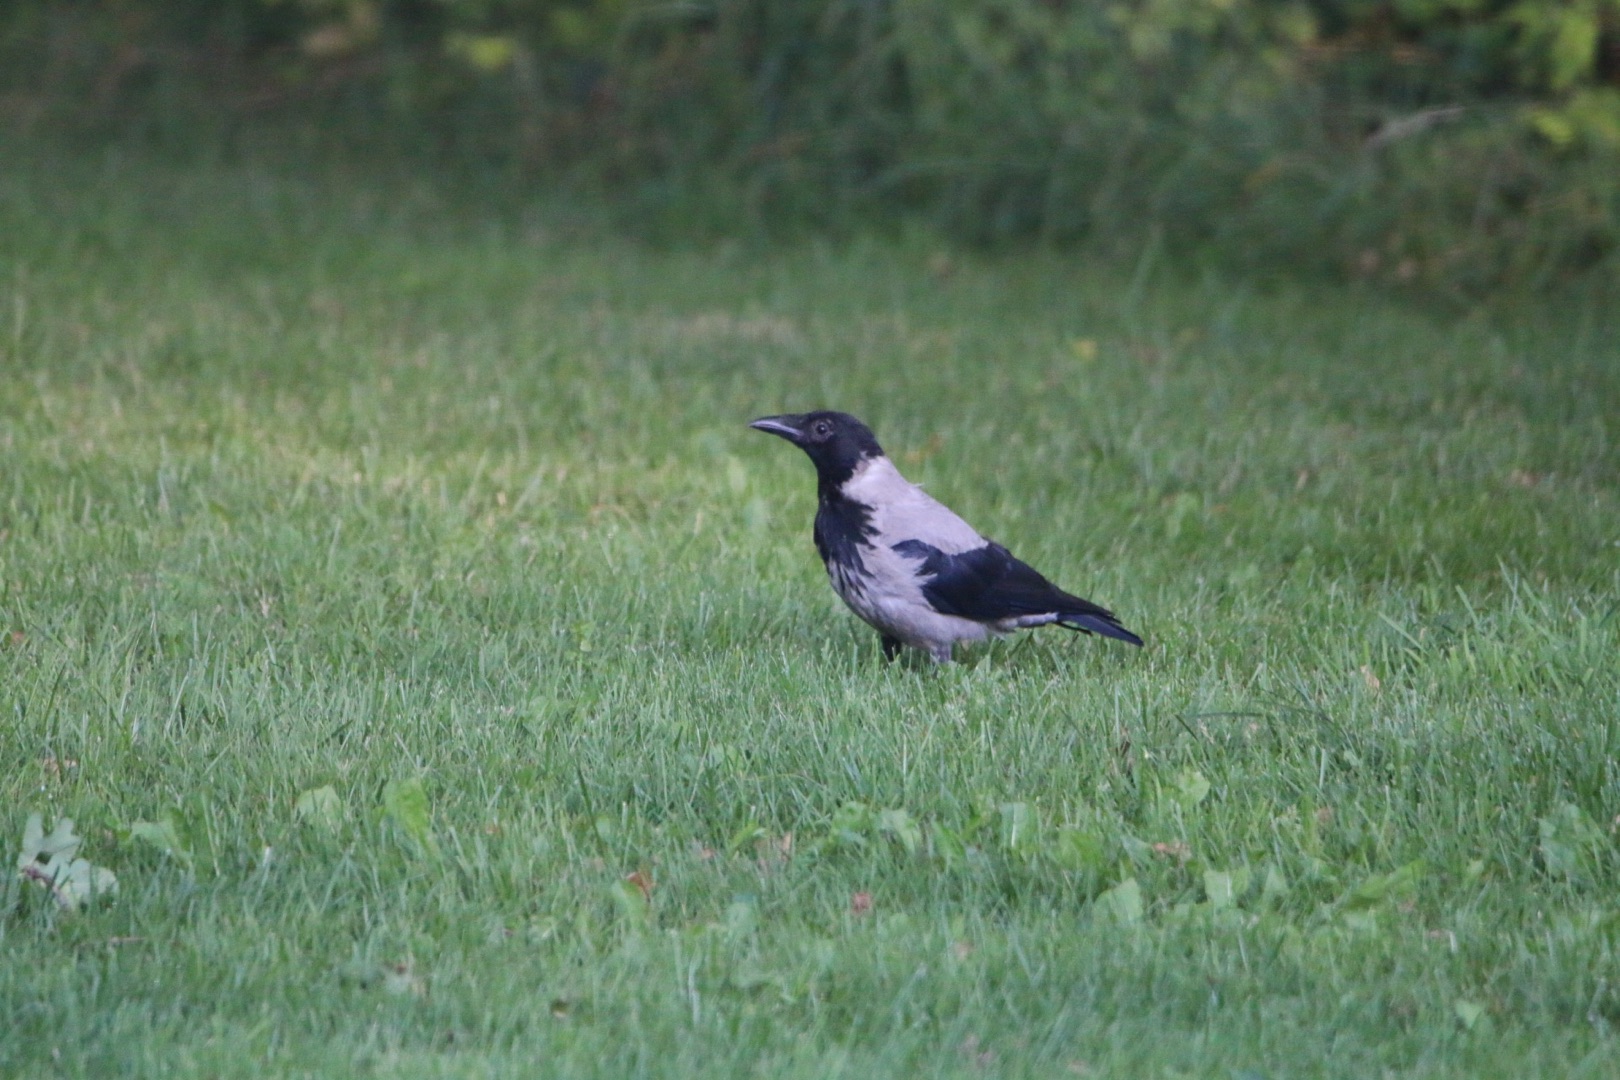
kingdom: Animalia
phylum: Chordata
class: Aves
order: Passeriformes
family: Corvidae
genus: Corvus
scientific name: Corvus cornix
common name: Gråkrage
